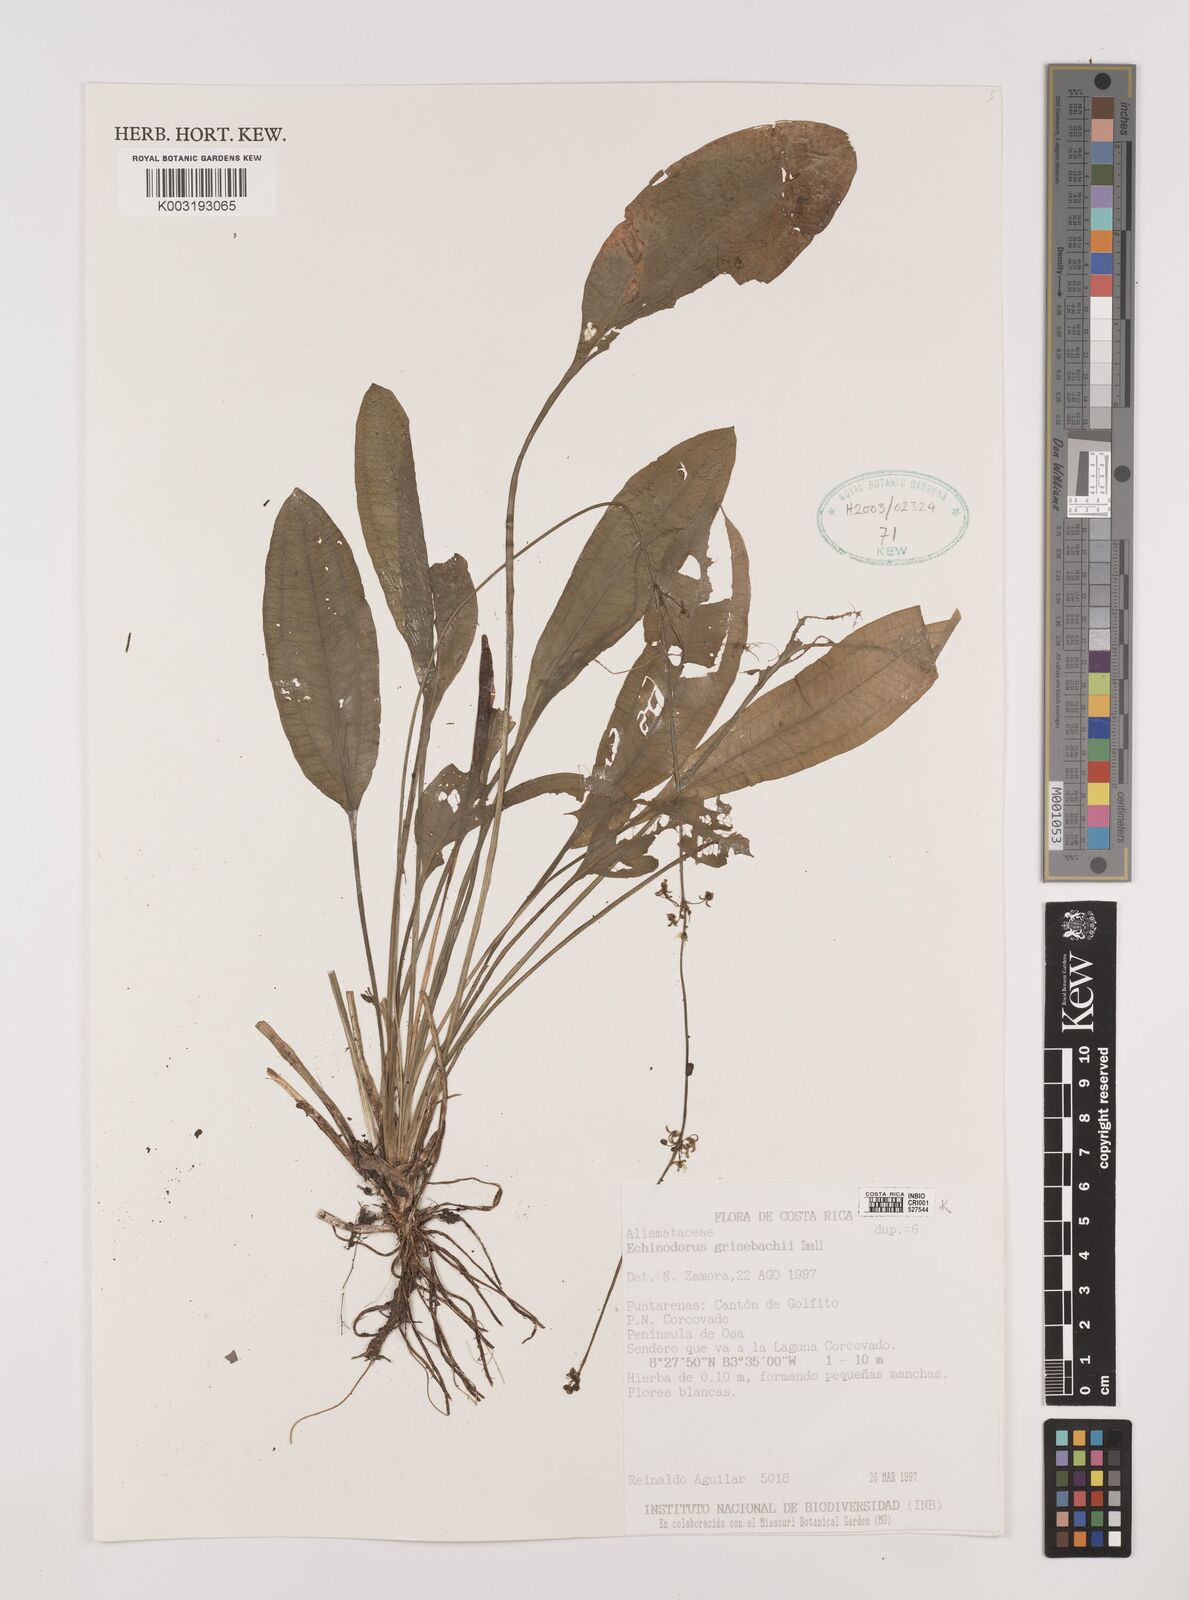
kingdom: Plantae
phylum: Tracheophyta
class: Liliopsida
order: Alismatales
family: Alismataceae
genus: Aquarius
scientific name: Aquarius grisebachii
